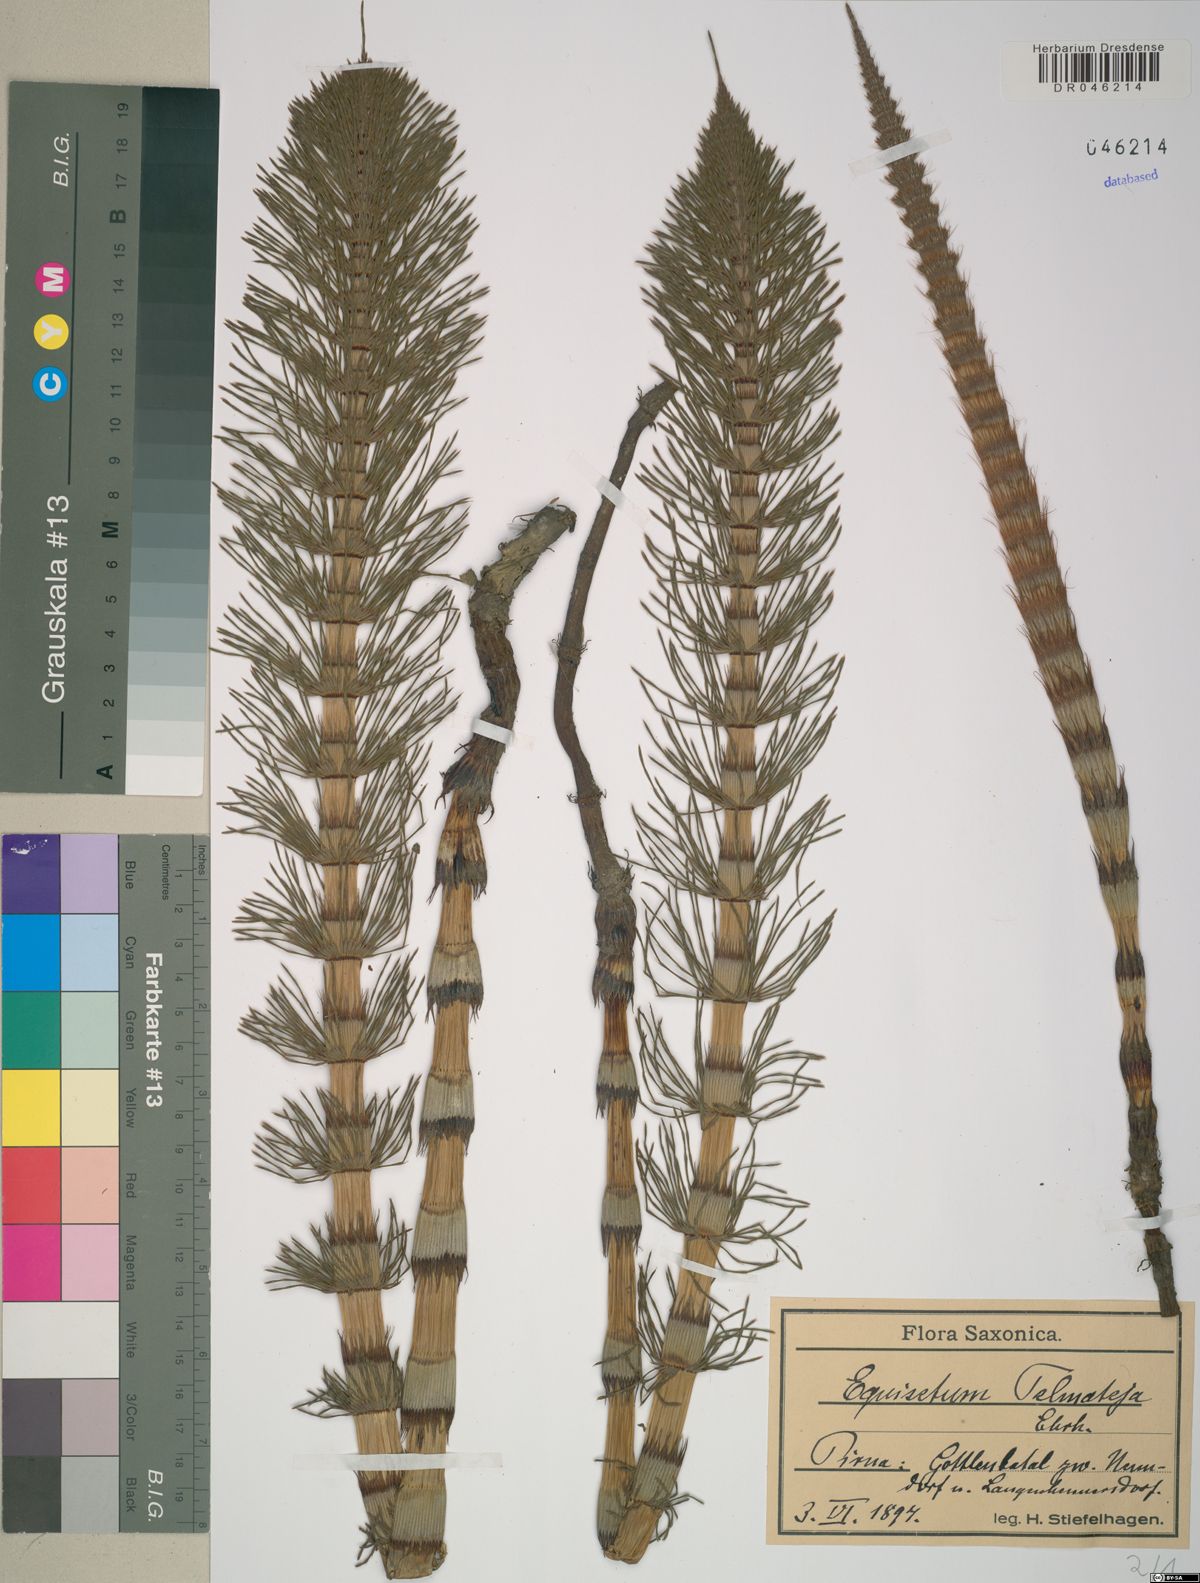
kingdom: Plantae
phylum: Tracheophyta
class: Polypodiopsida
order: Equisetales
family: Equisetaceae
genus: Equisetum
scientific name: Equisetum telmateia
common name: Great horsetail
